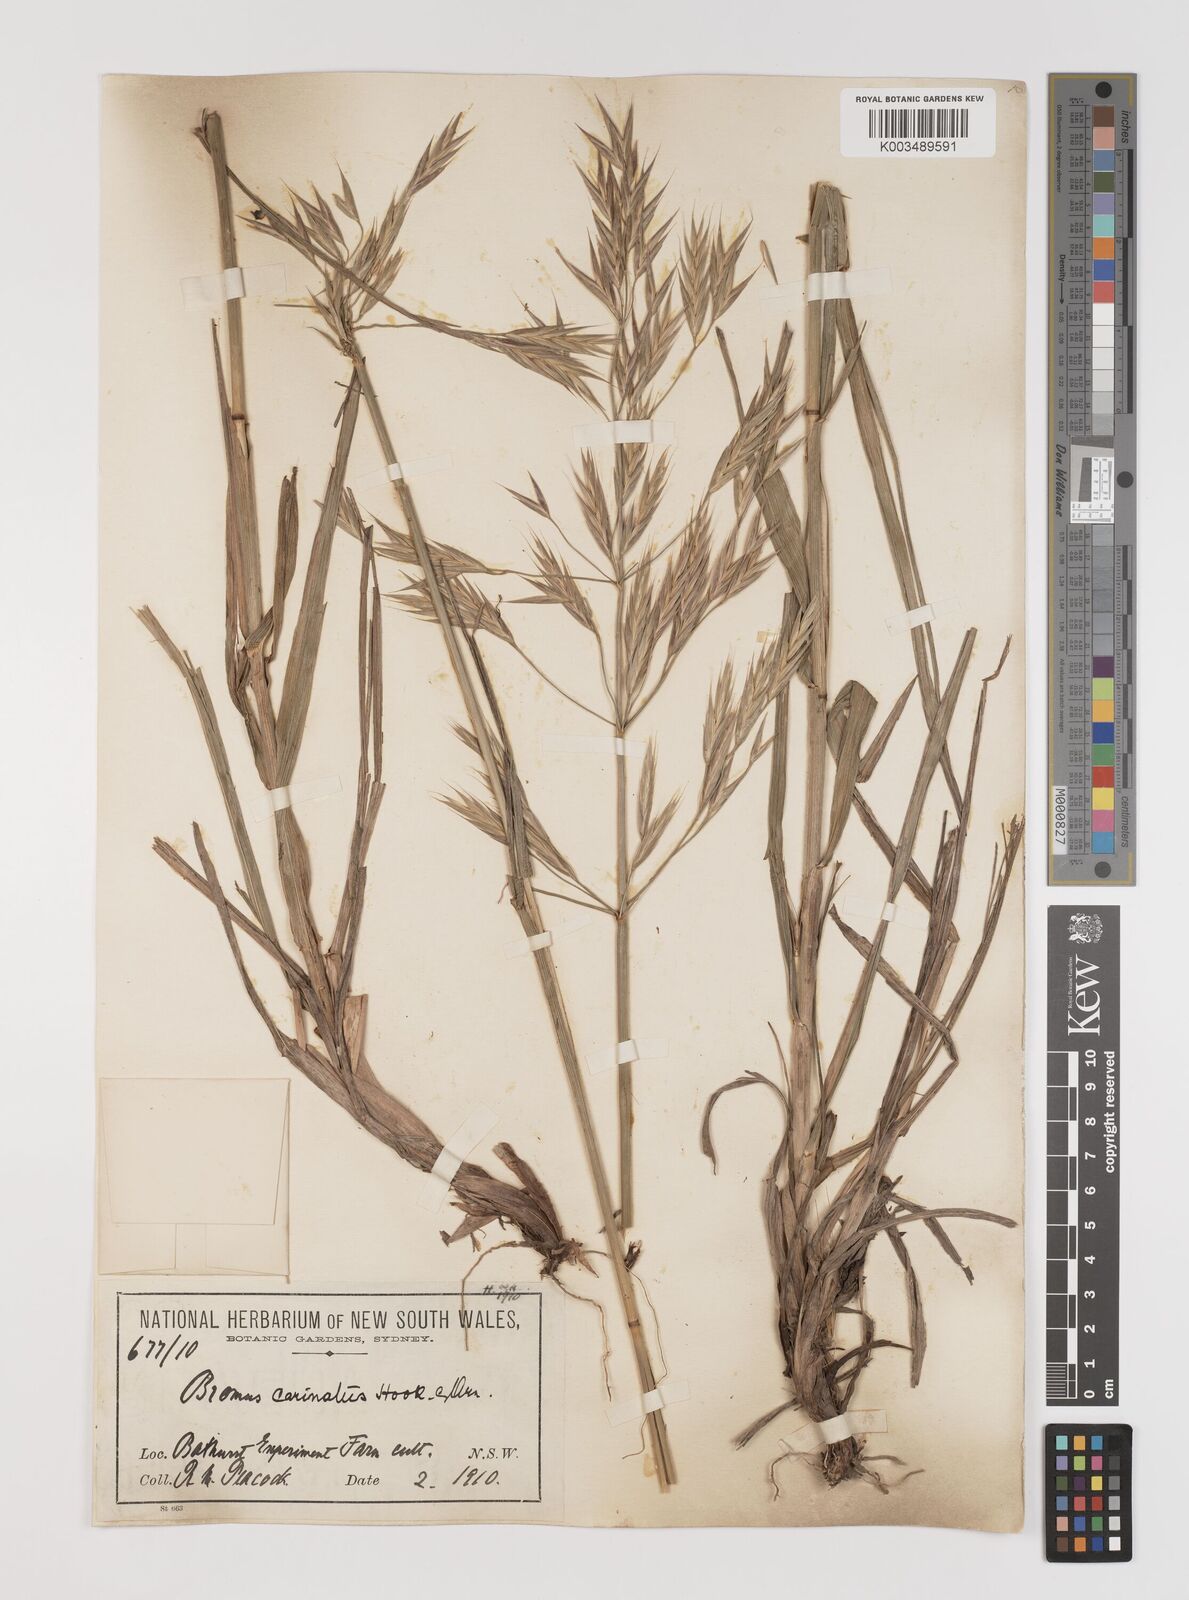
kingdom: Plantae
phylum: Tracheophyta
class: Liliopsida
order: Poales
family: Poaceae
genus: Bromus
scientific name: Bromus carinatus
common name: Mountain brome
